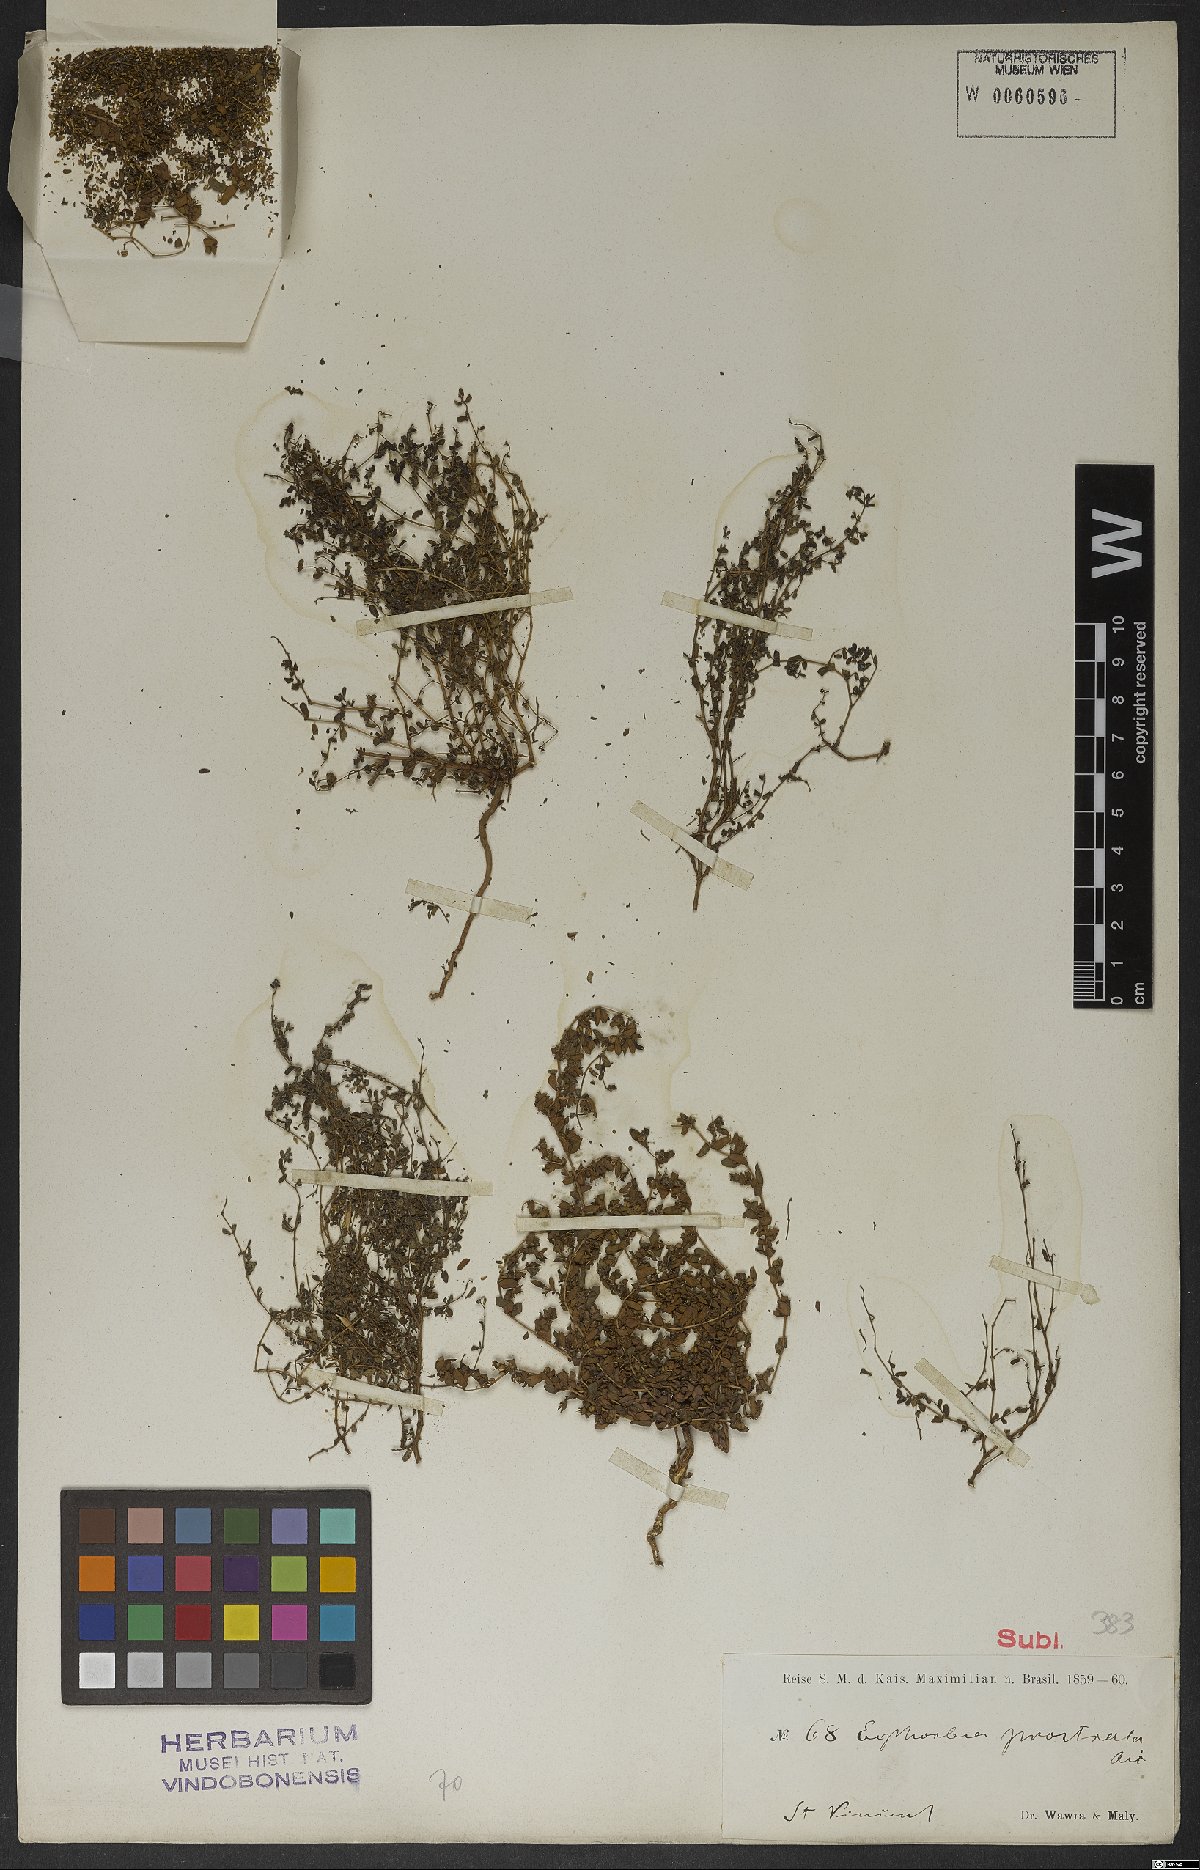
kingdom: Plantae
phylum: Tracheophyta
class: Magnoliopsida
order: Malpighiales
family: Euphorbiaceae
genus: Euphorbia
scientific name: Euphorbia
